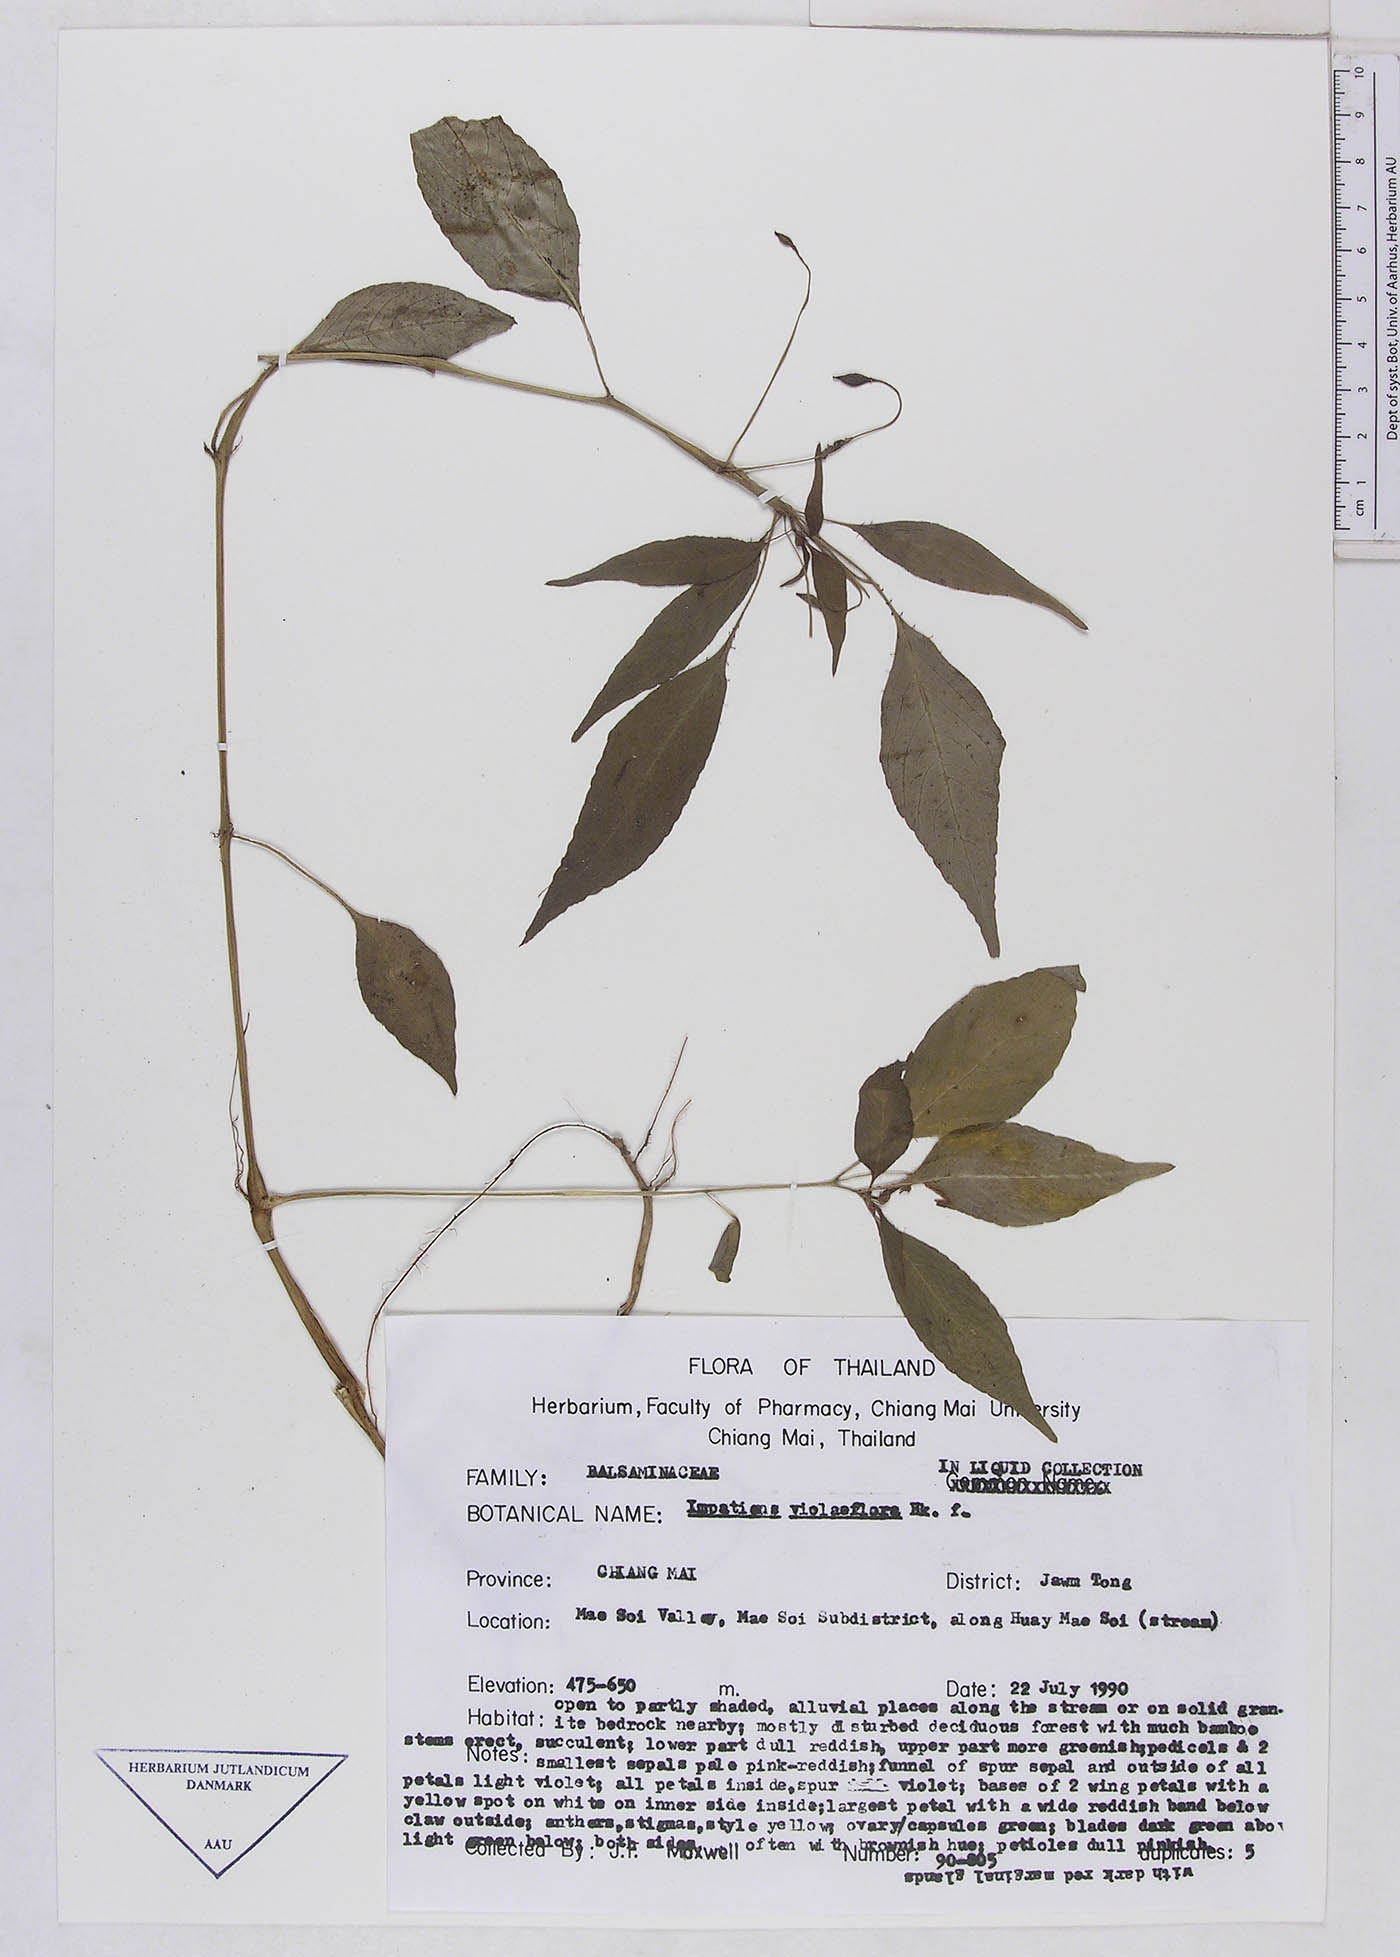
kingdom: Plantae
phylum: Tracheophyta
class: Magnoliopsida
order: Ericales
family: Balsaminaceae
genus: Impatiens
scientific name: Impatiens violiflora
